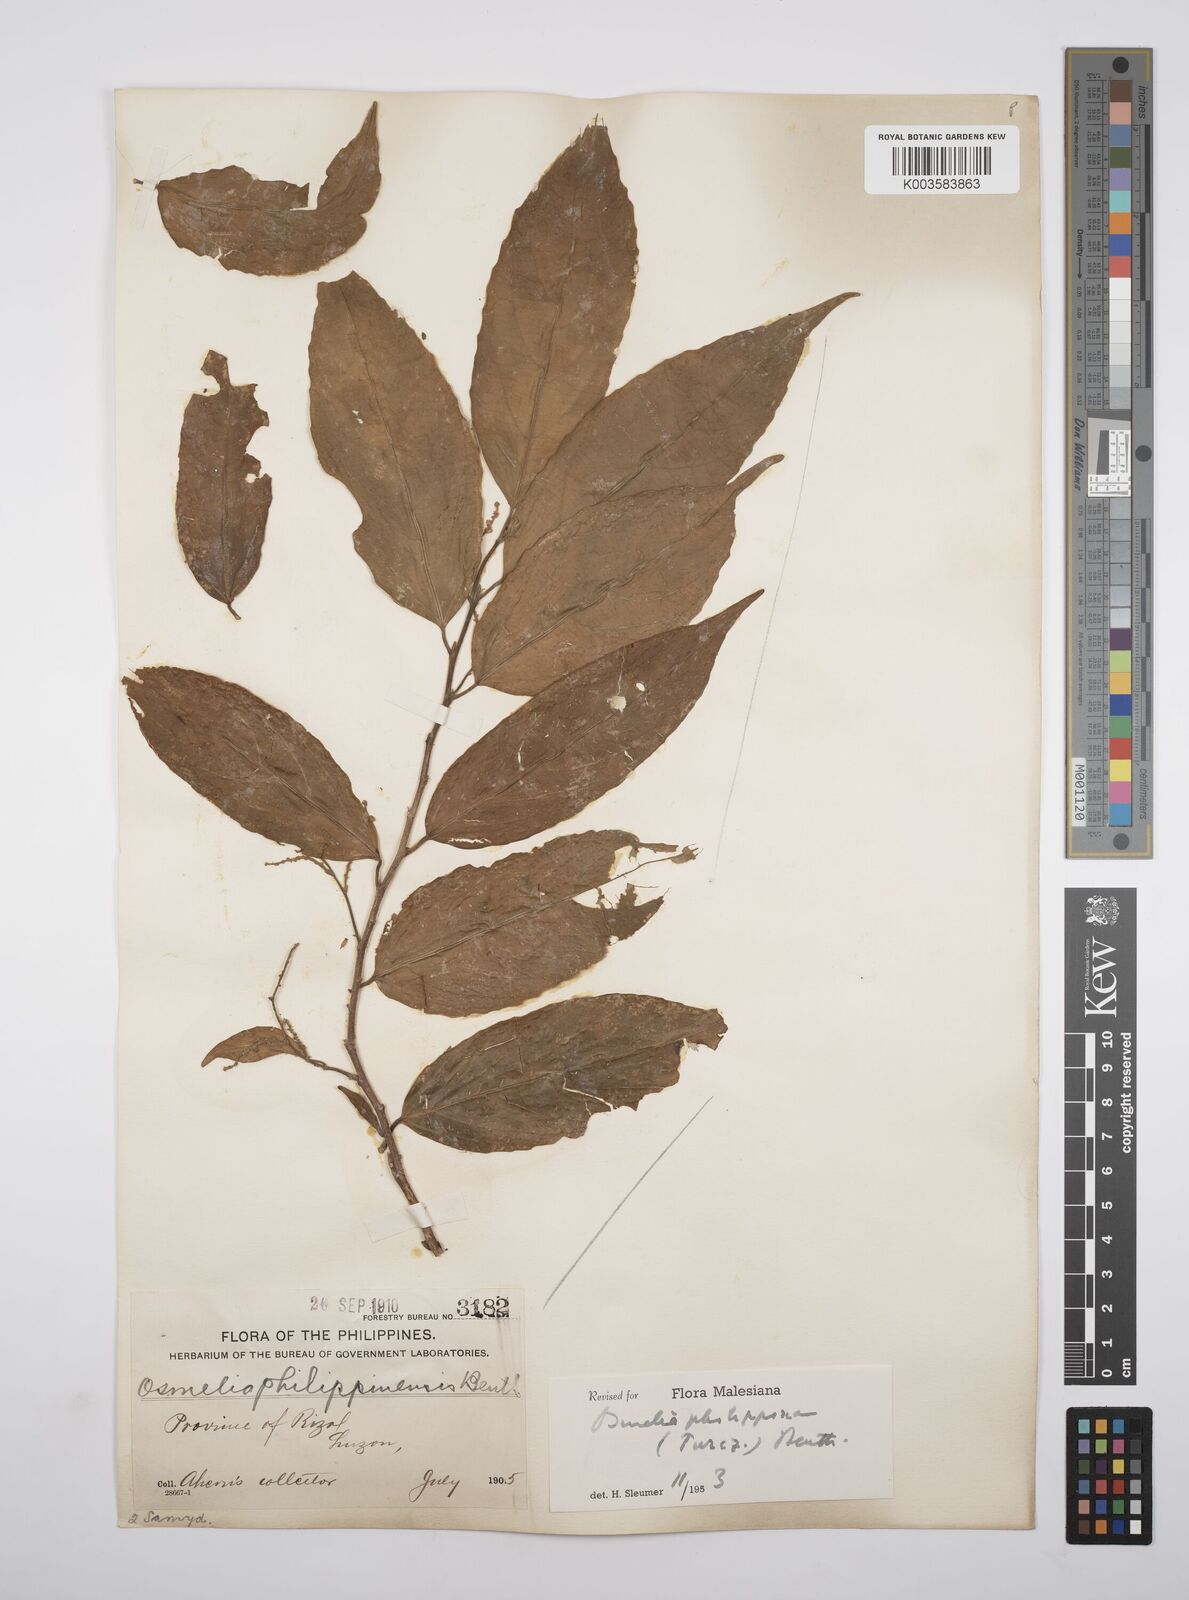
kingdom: Plantae
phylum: Tracheophyta
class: Magnoliopsida
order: Malpighiales
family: Salicaceae
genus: Osmelia
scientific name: Osmelia philippina
